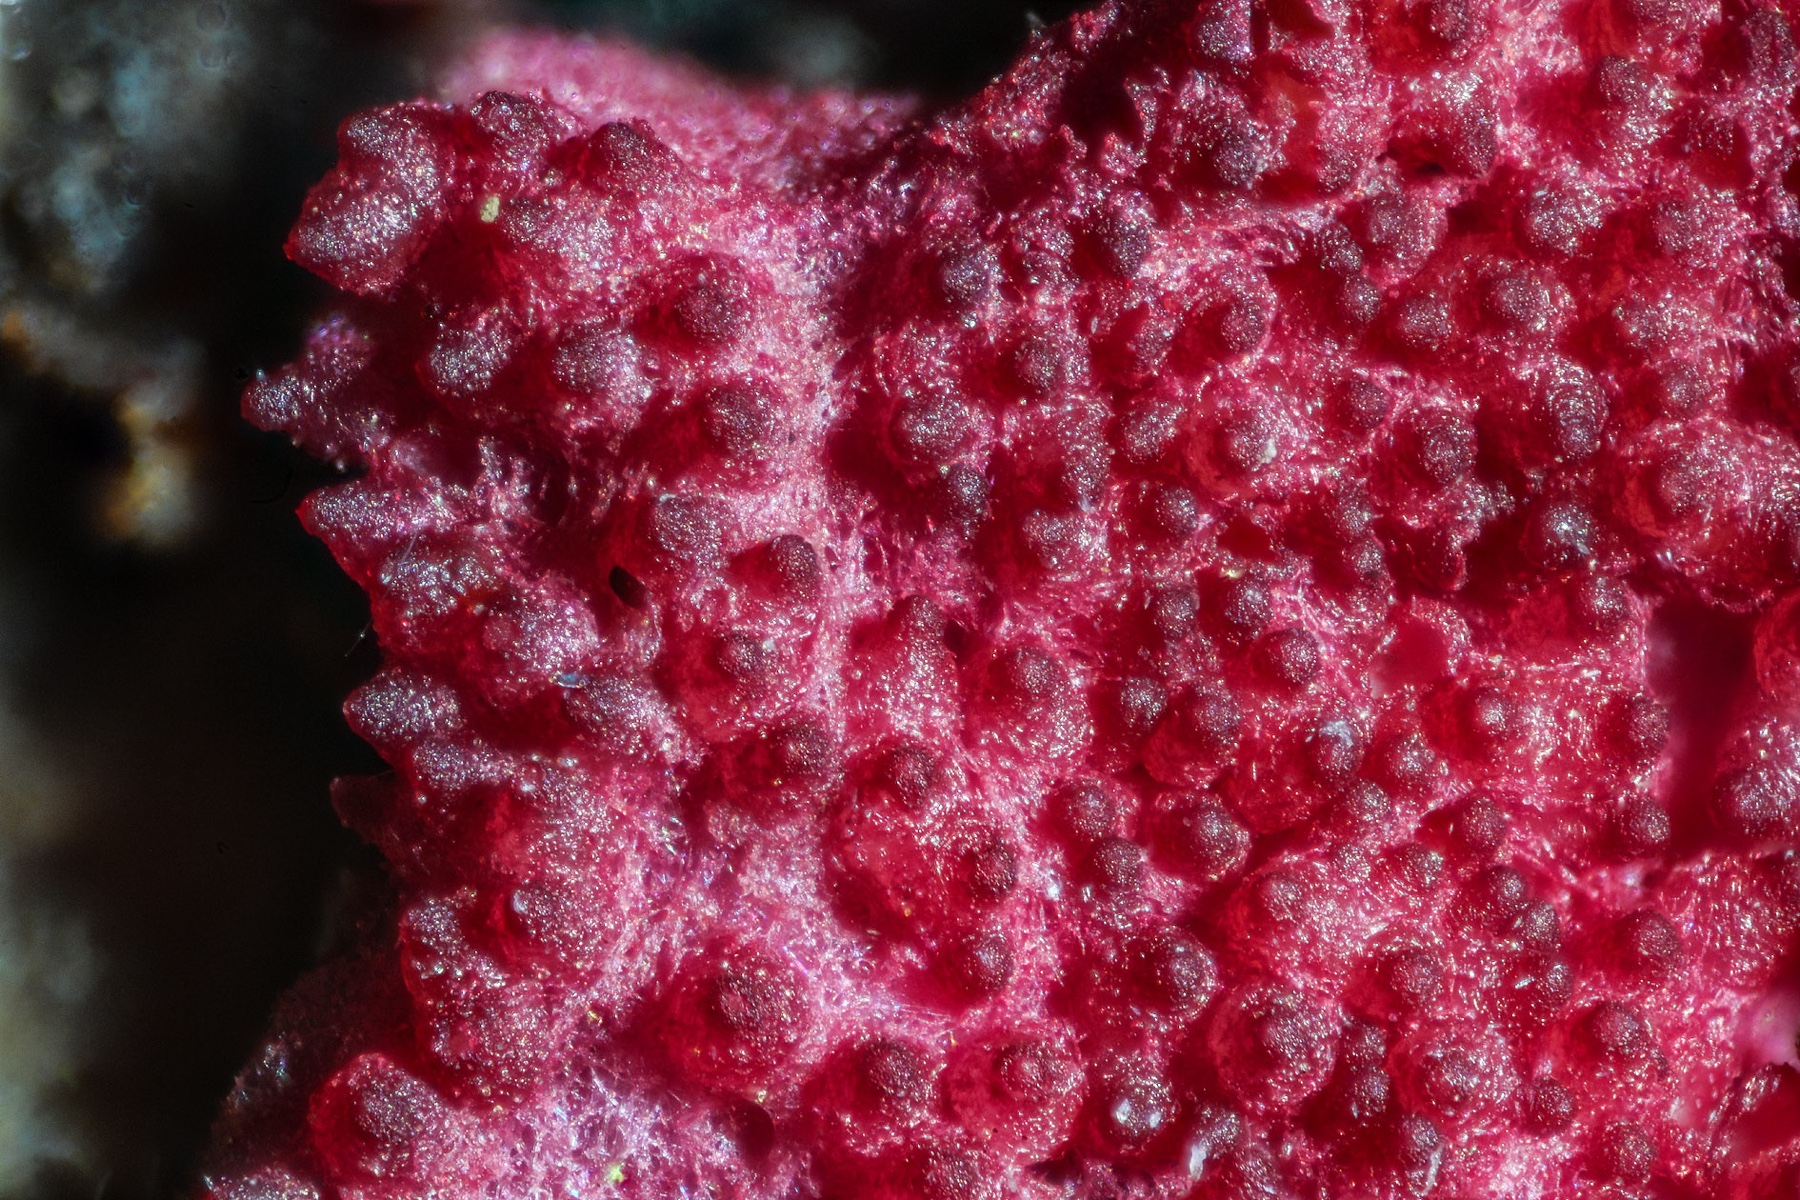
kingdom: Fungi
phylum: Ascomycota
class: Sordariomycetes
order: Hypocreales
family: Hypocreaceae
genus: Hypomyces
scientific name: Hypomyces rosellus
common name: rosa snylteskorpe
